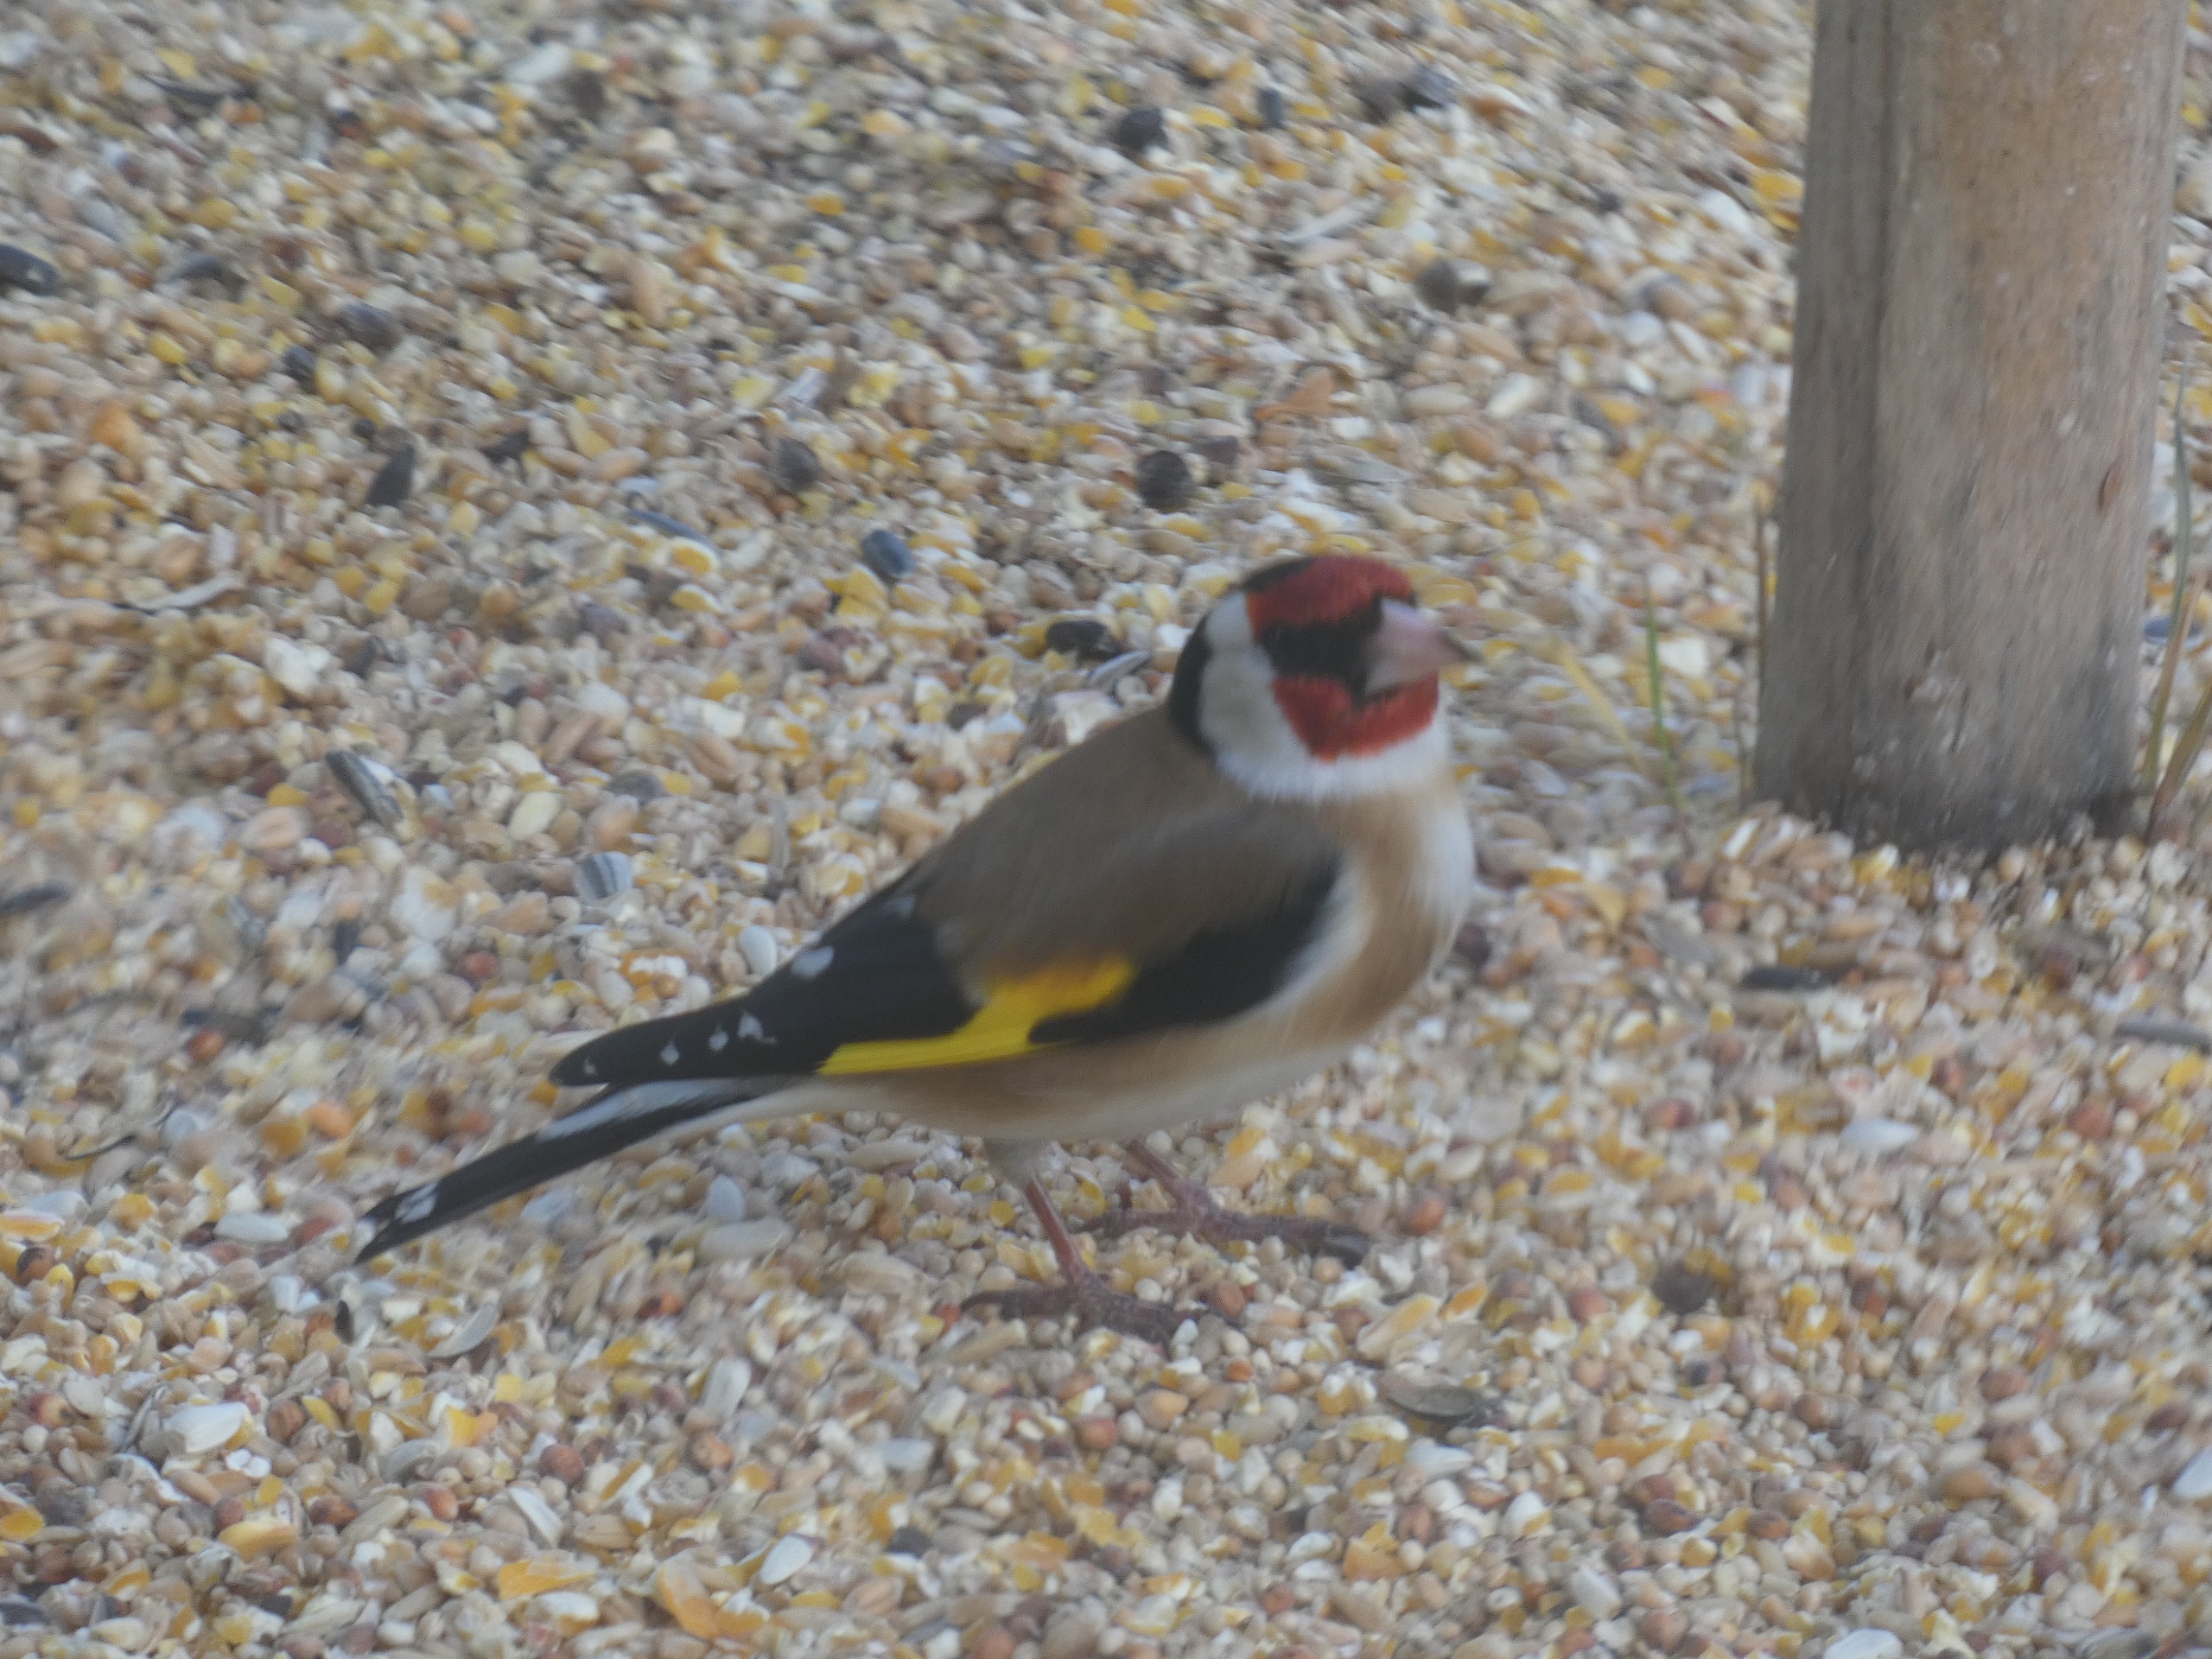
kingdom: Animalia
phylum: Chordata
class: Aves
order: Passeriformes
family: Fringillidae
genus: Carduelis
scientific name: Carduelis carduelis
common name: Stillits
